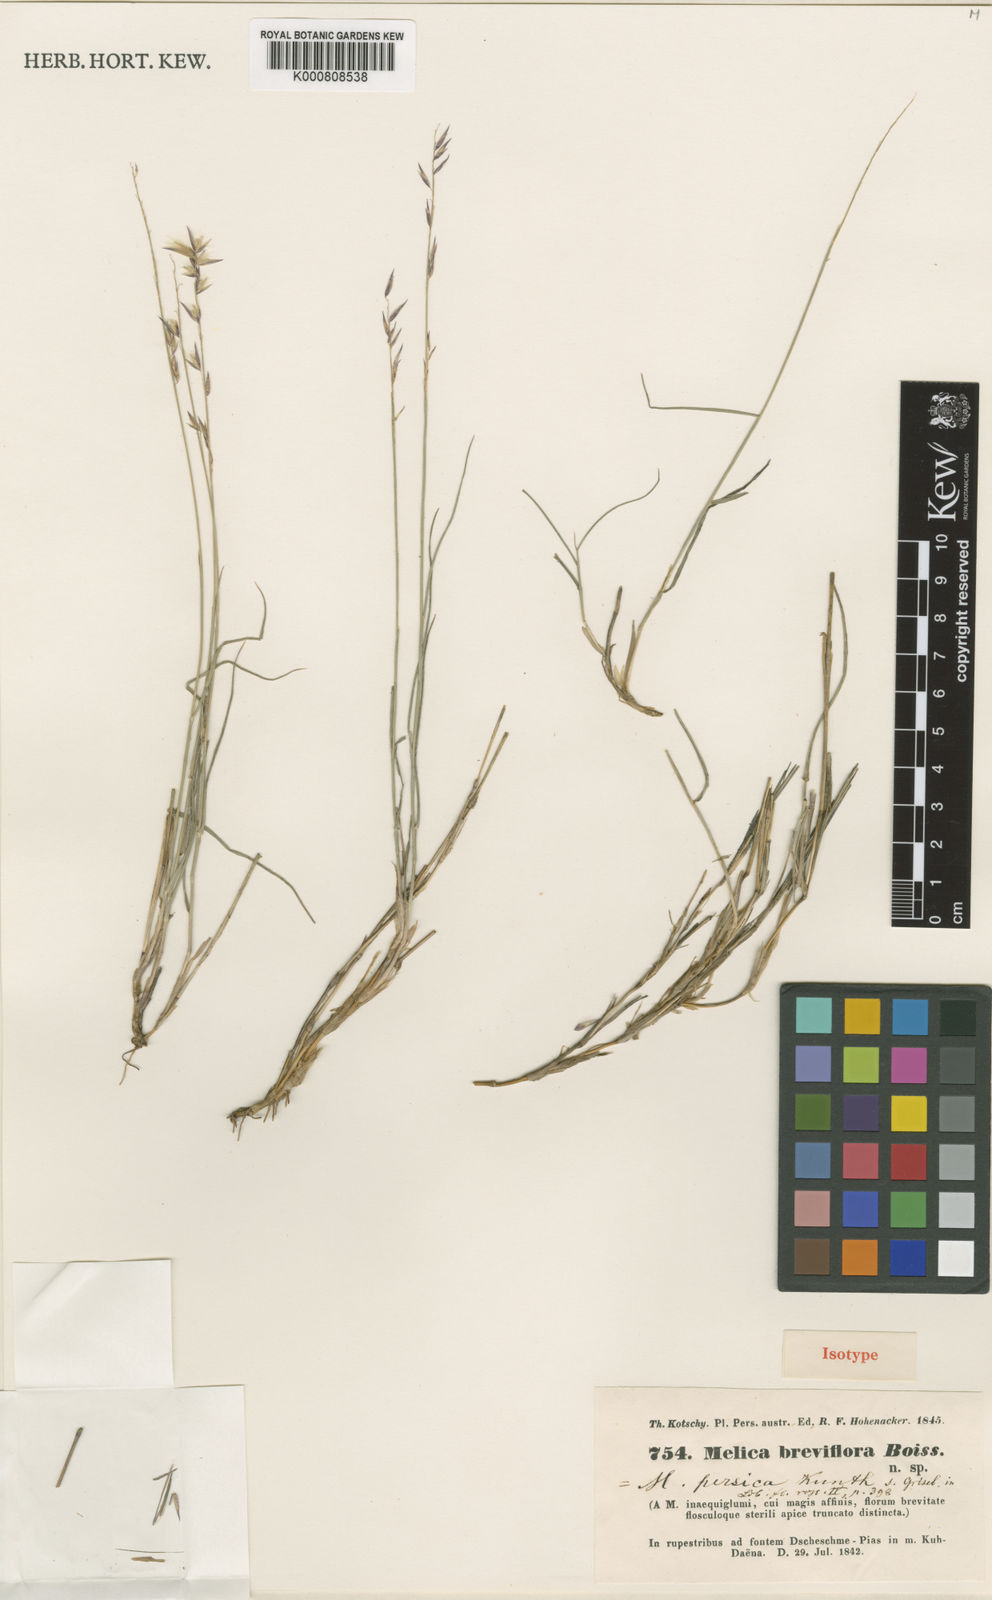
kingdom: Plantae
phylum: Tracheophyta
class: Liliopsida
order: Poales
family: Poaceae
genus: Melica
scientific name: Melica persica
